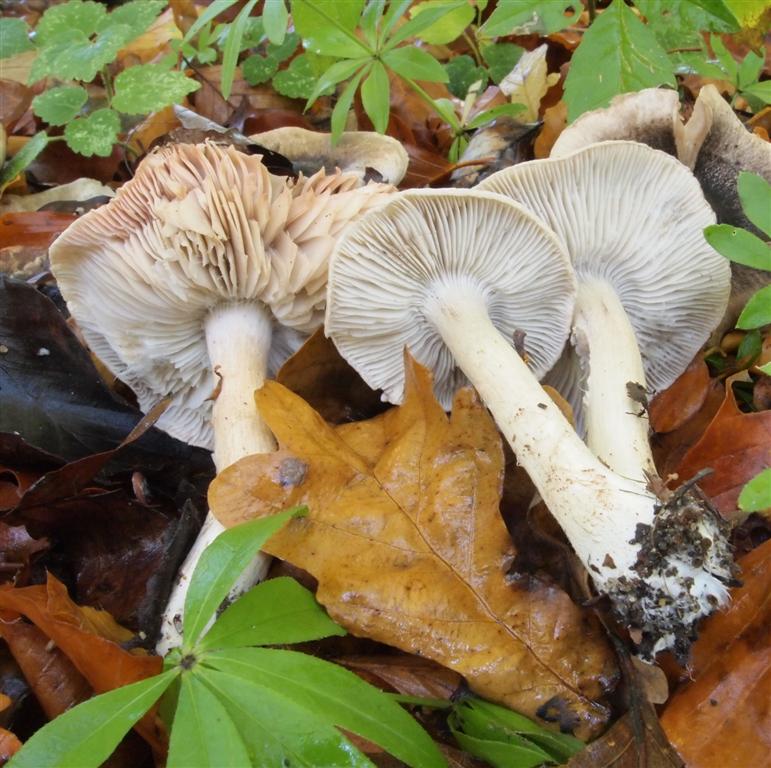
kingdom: Fungi
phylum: Basidiomycota
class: Agaricomycetes
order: Agaricales
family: Tricholomataceae
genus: Tricholoma
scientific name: Tricholoma orirubens
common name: rødbladet ridderhat
